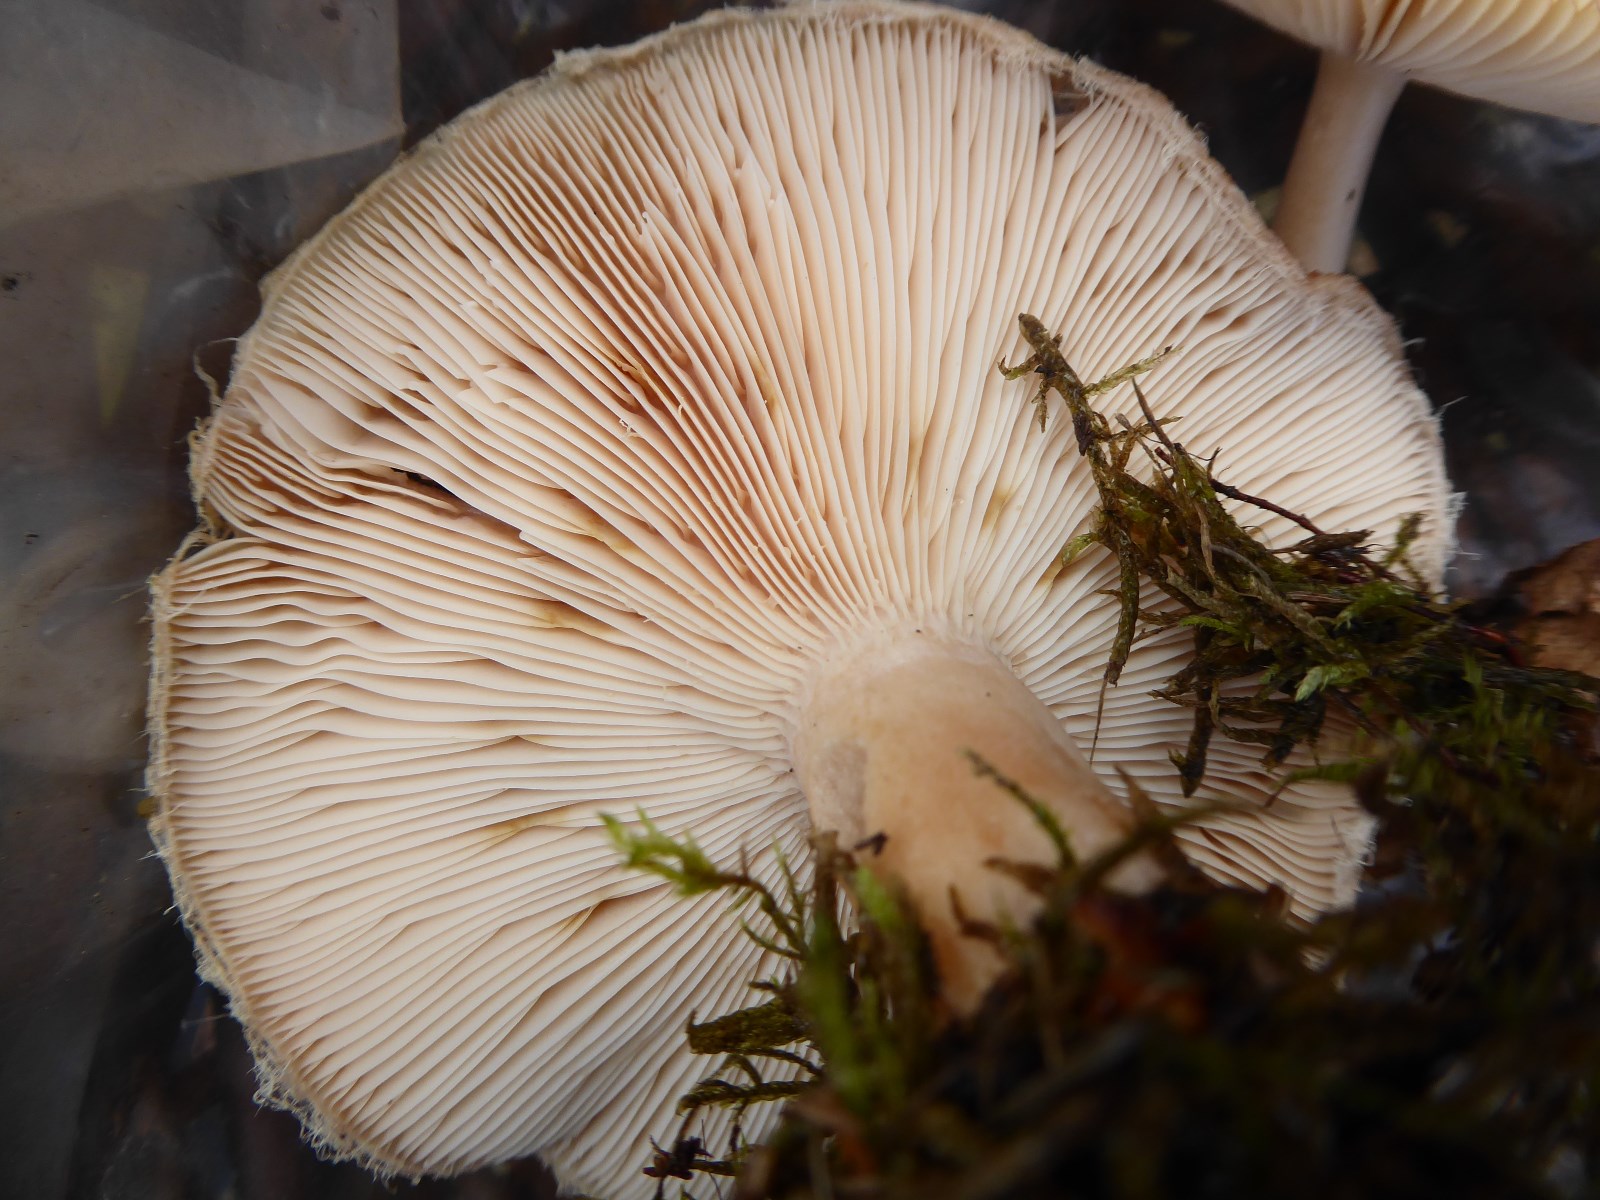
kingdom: Fungi
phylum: Basidiomycota
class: Agaricomycetes
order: Russulales
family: Russulaceae
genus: Lactarius
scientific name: Lactarius torminosus
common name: skægget mælkehat
